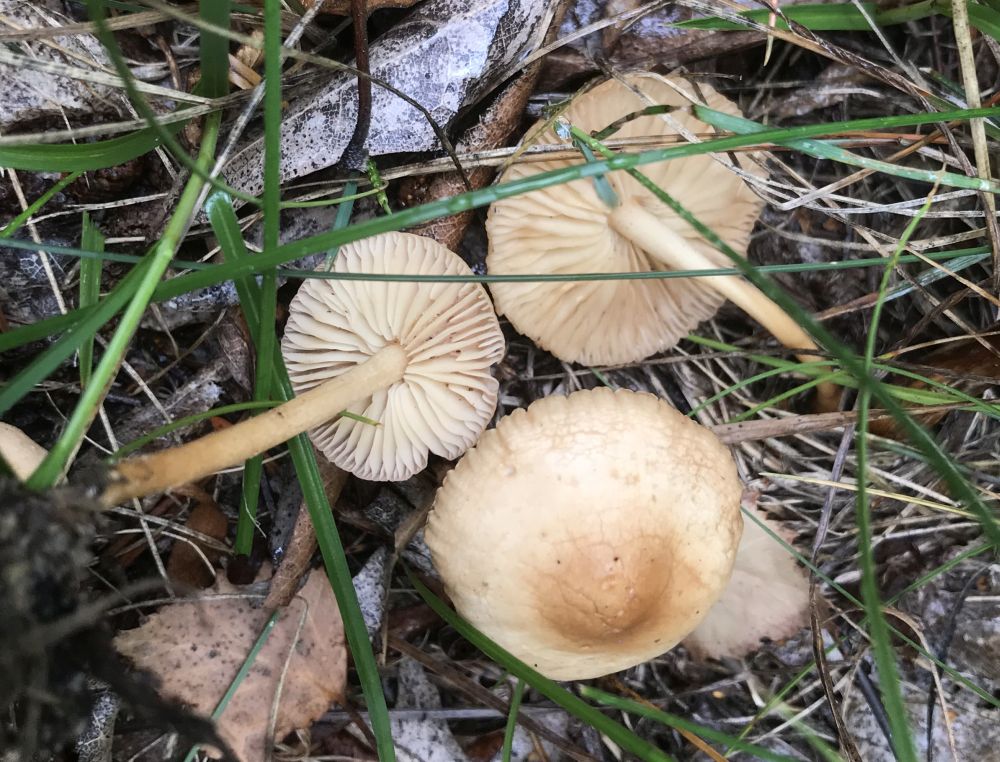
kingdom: Fungi
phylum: Basidiomycota
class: Agaricomycetes
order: Agaricales
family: Marasmiaceae
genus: Marasmius
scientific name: Marasmius oreades
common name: elledans-bruskhat
